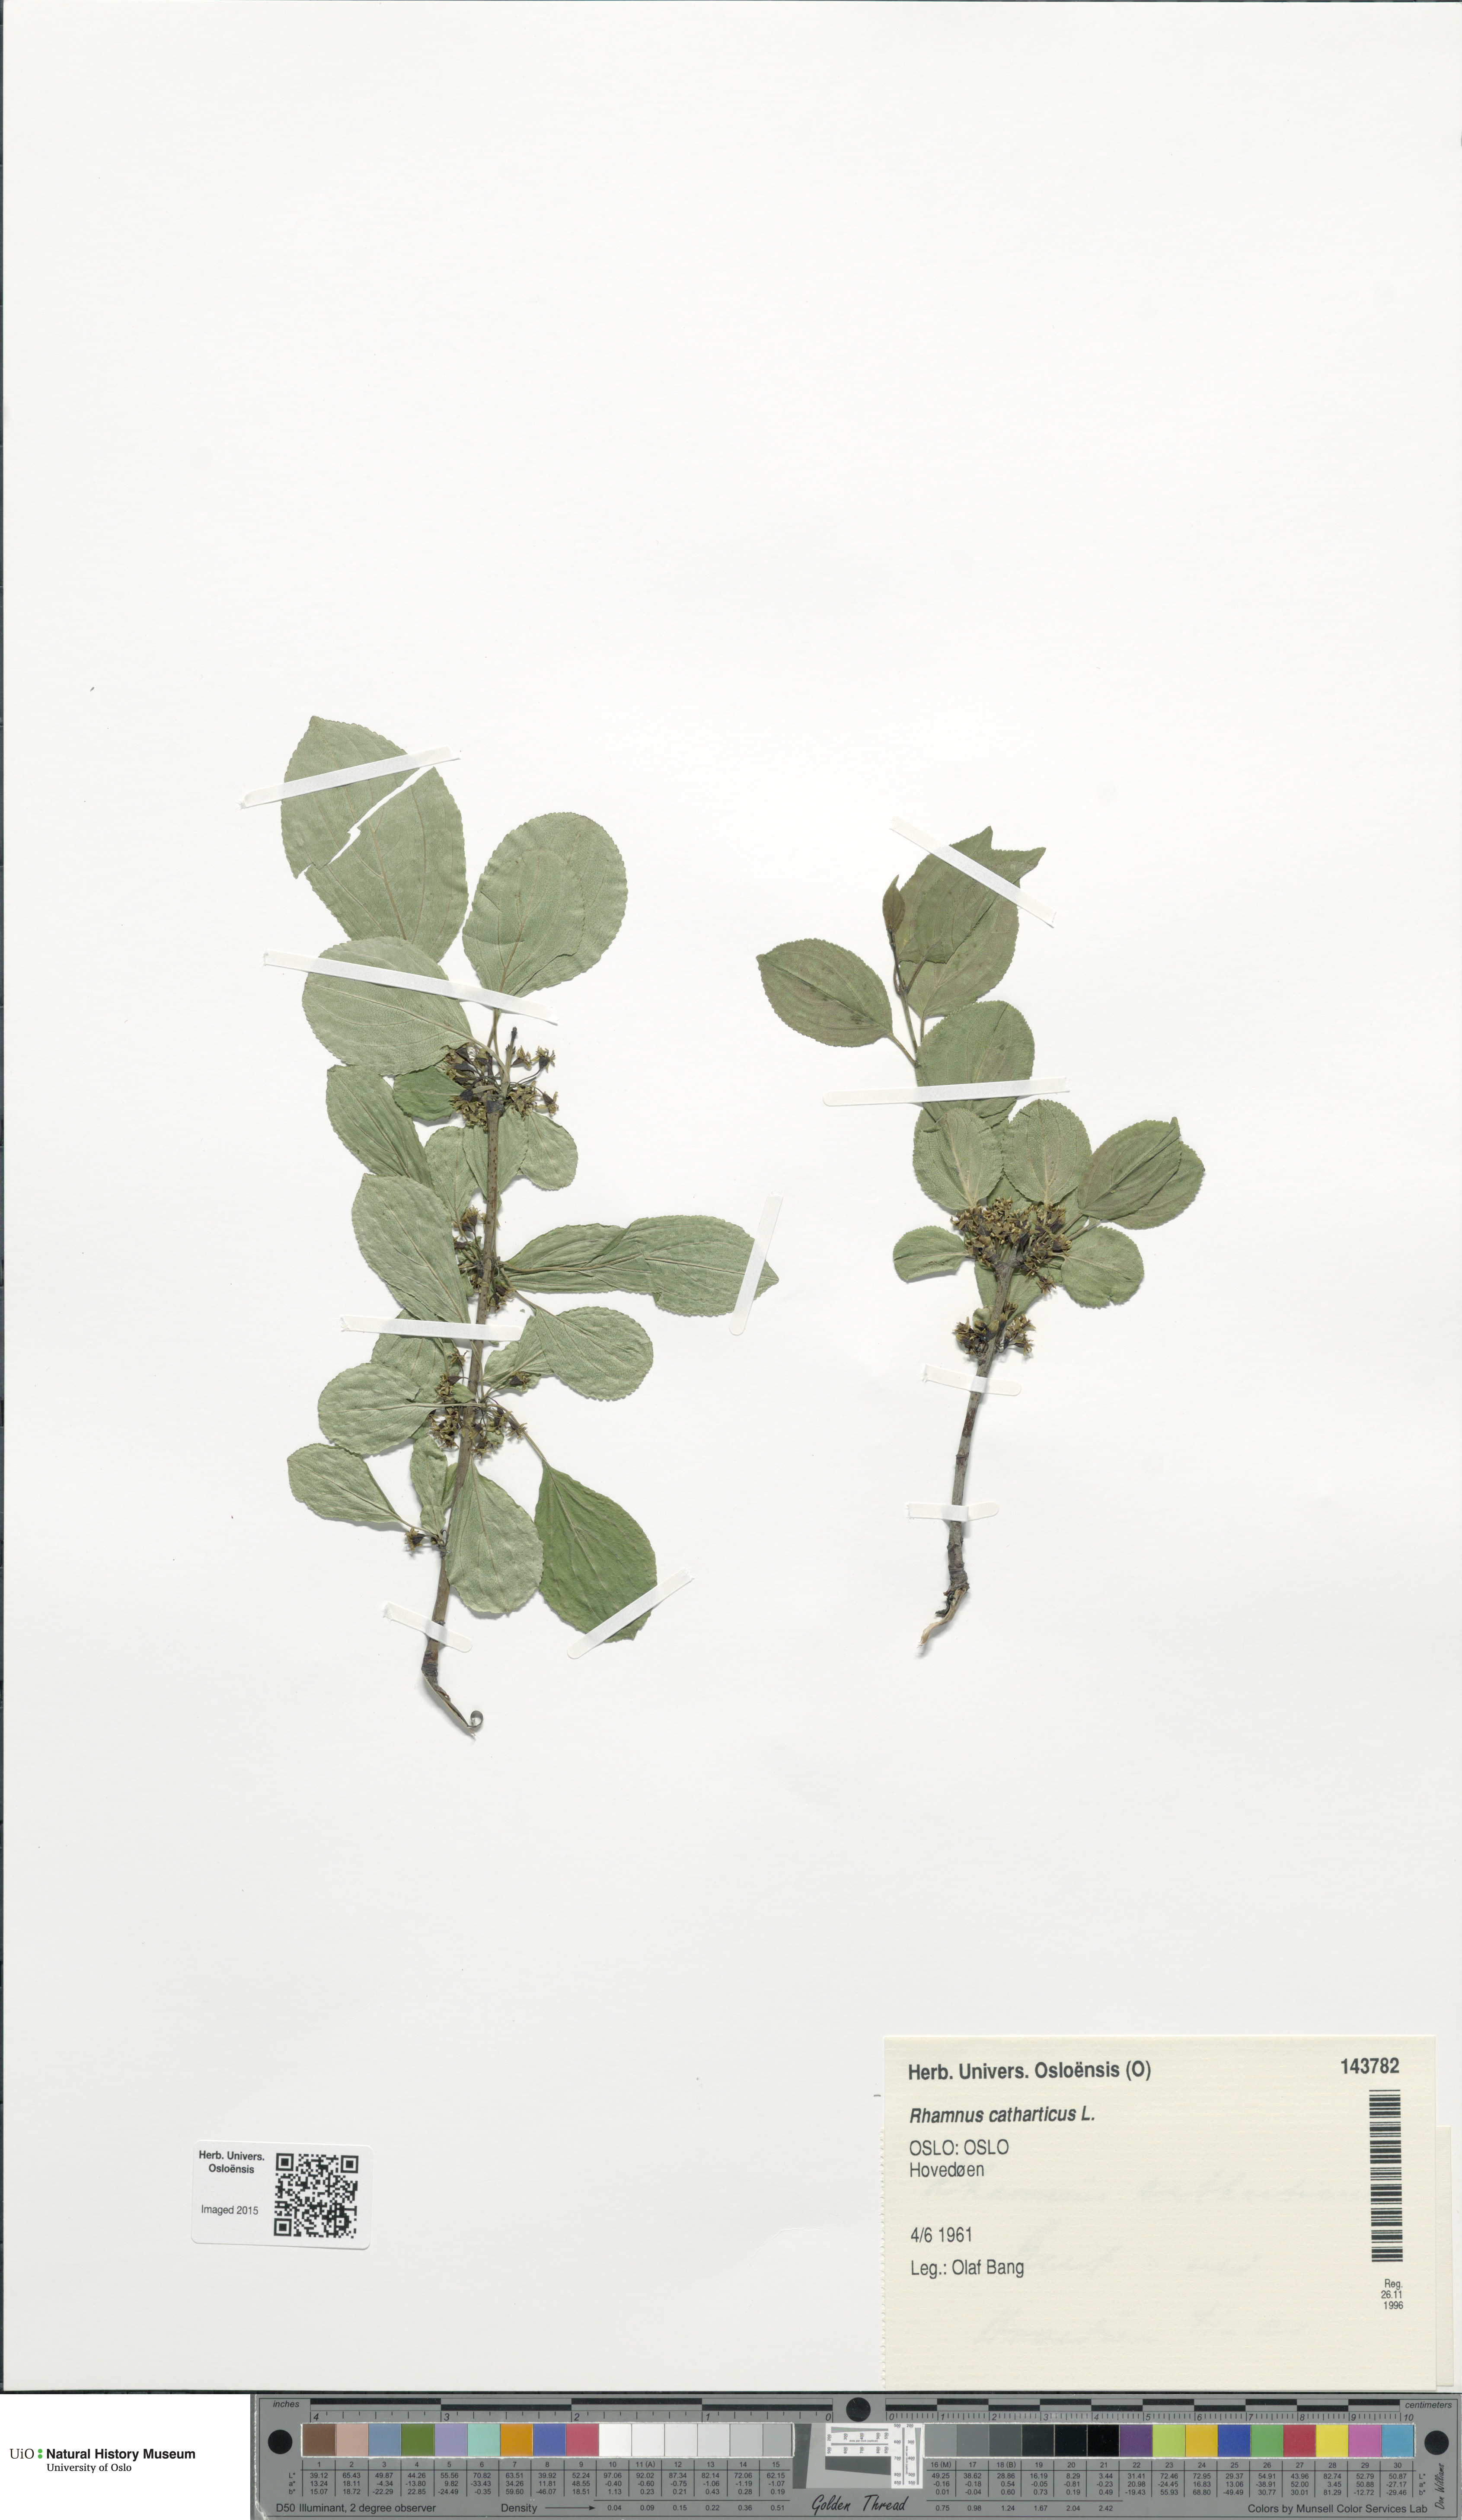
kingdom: Plantae
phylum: Tracheophyta
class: Magnoliopsida
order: Rosales
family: Rhamnaceae
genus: Rhamnus
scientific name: Rhamnus cathartica
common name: Common buckthorn
